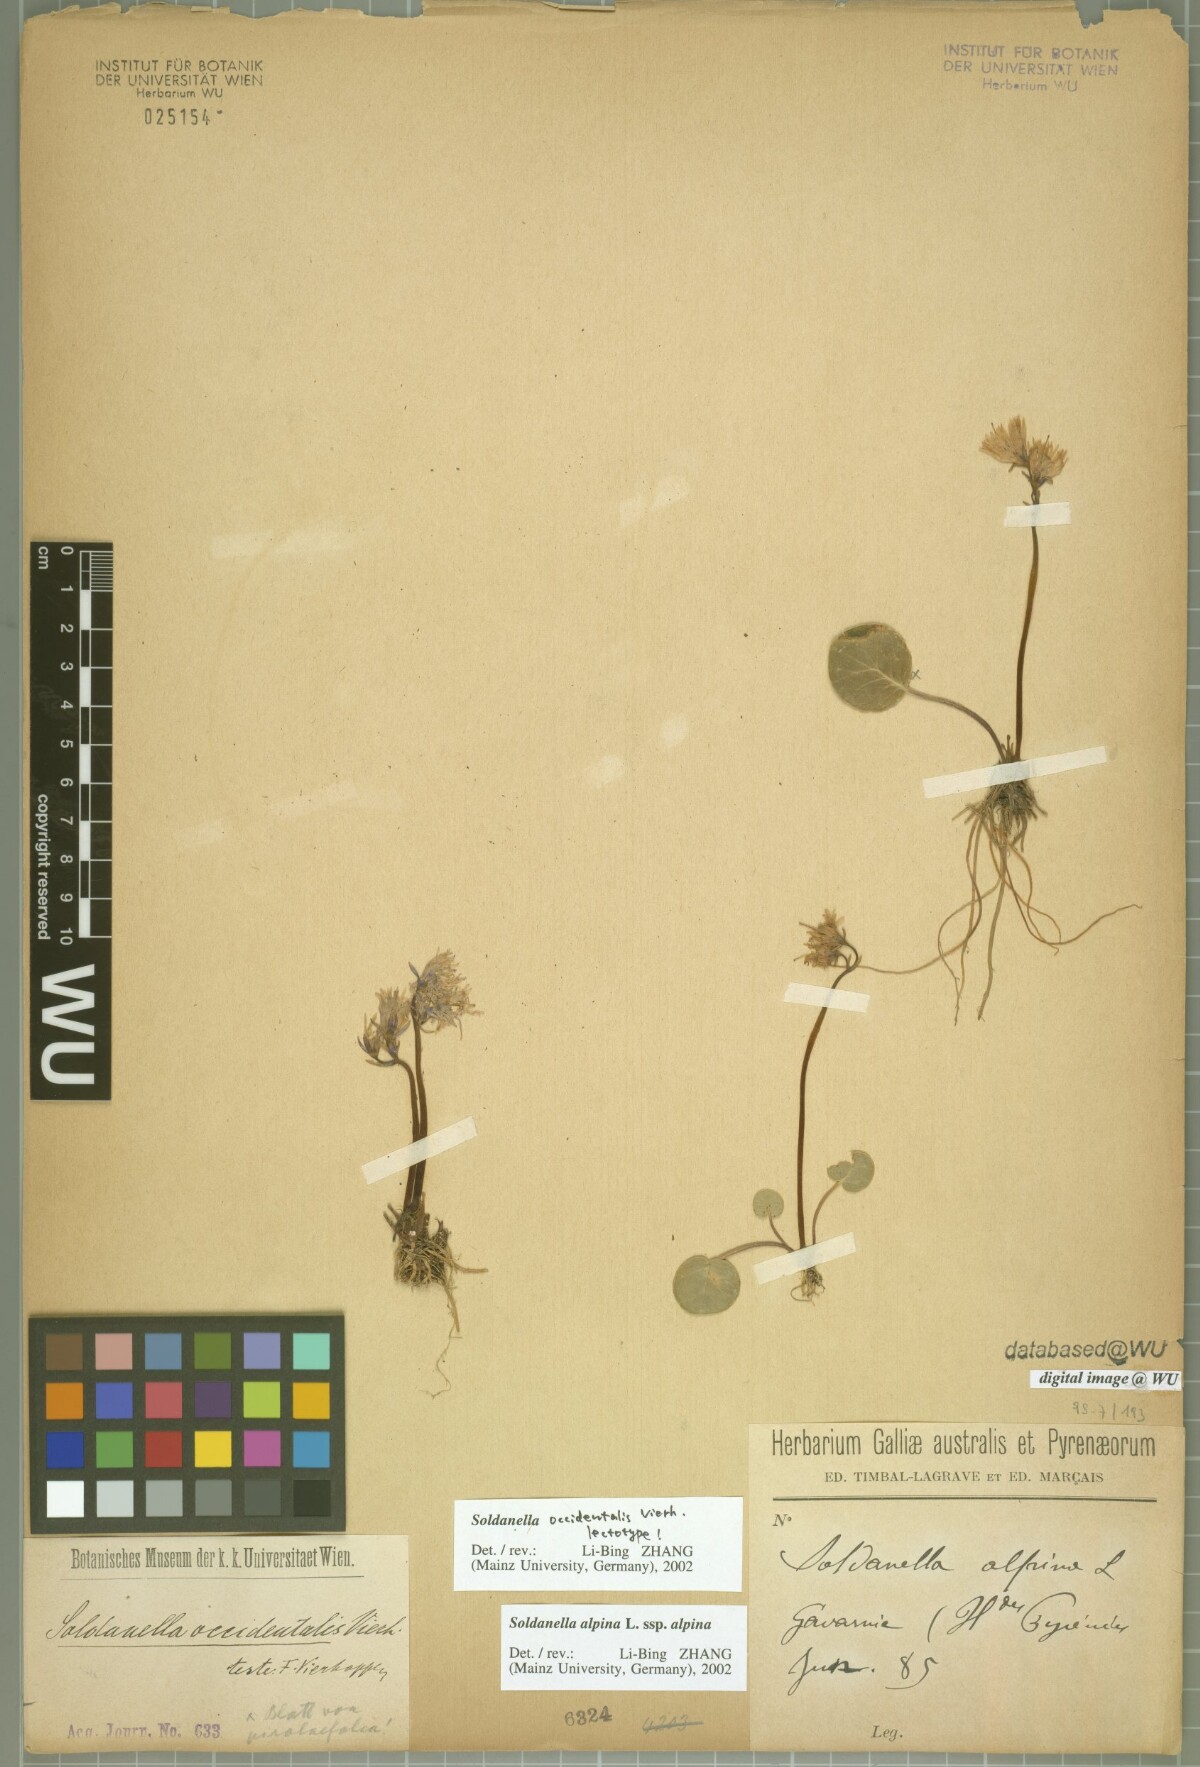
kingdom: Plantae
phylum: Tracheophyta
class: Magnoliopsida
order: Ericales
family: Primulaceae
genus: Soldanella
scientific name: Soldanella alpina
